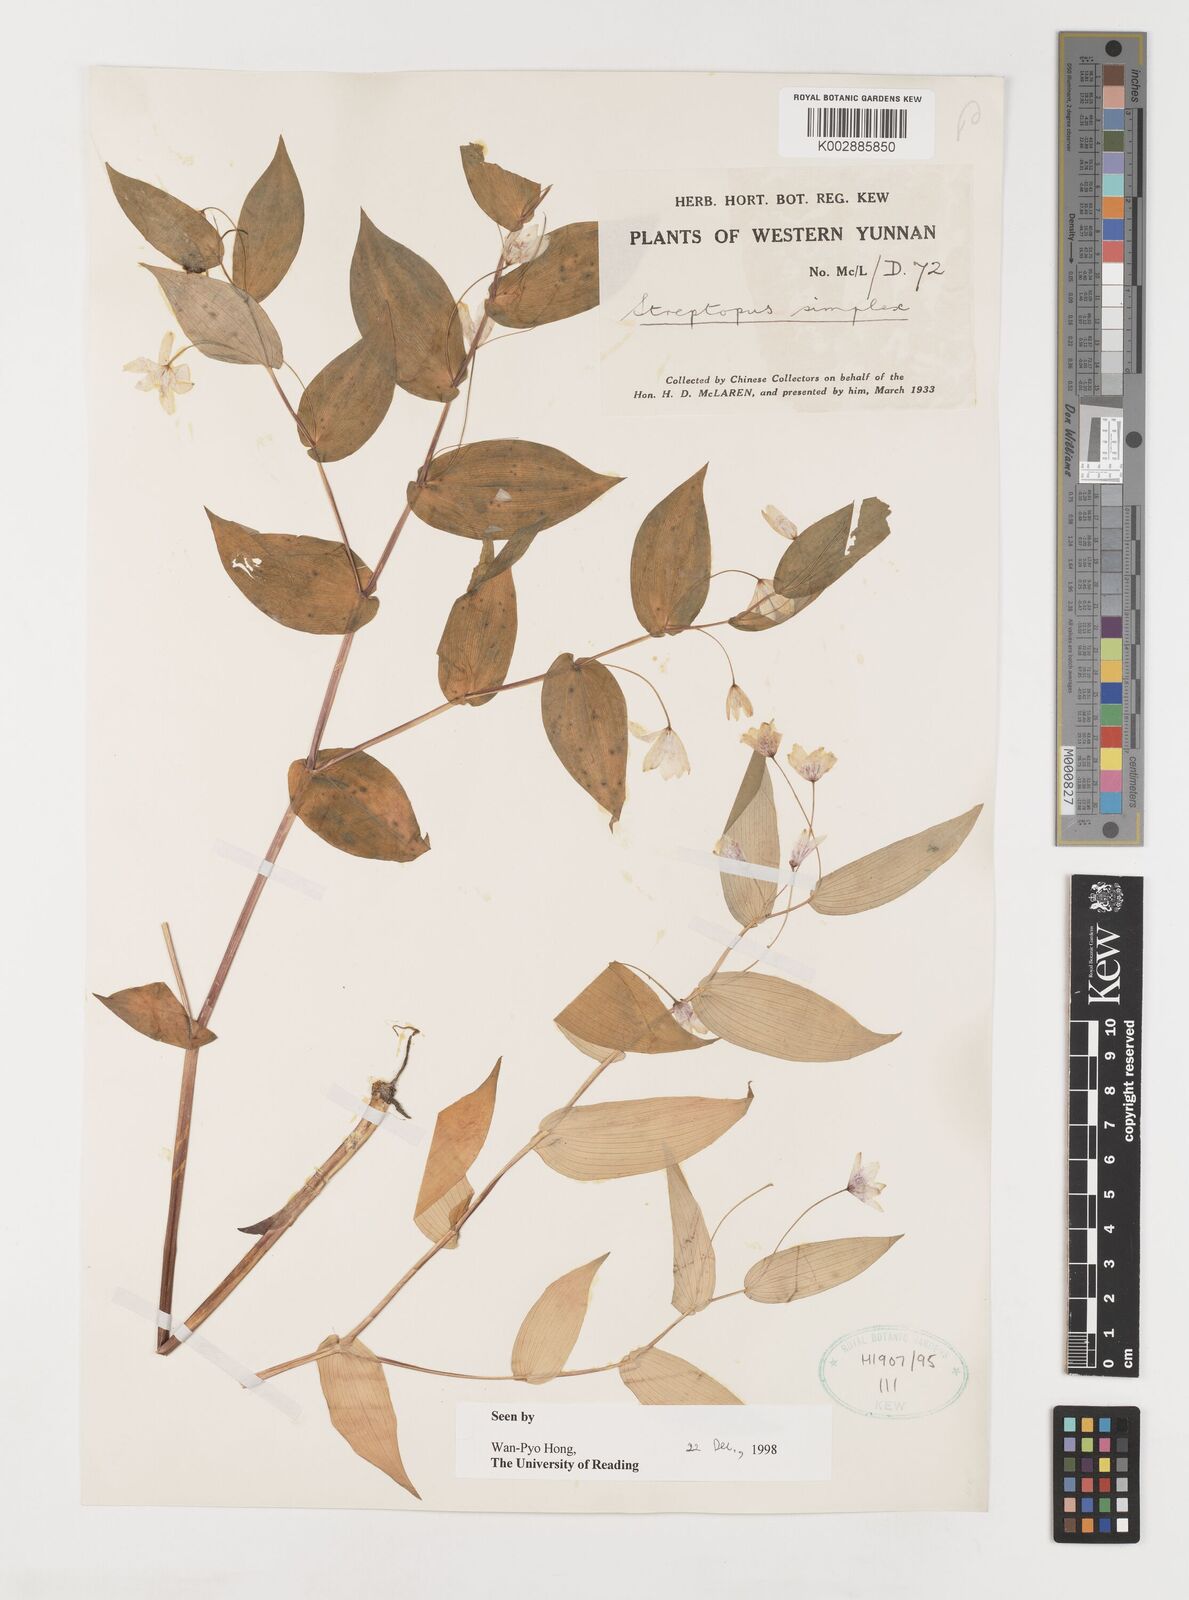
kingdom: Plantae
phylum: Tracheophyta
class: Liliopsida
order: Liliales
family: Liliaceae
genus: Streptopus
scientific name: Streptopus simplex
